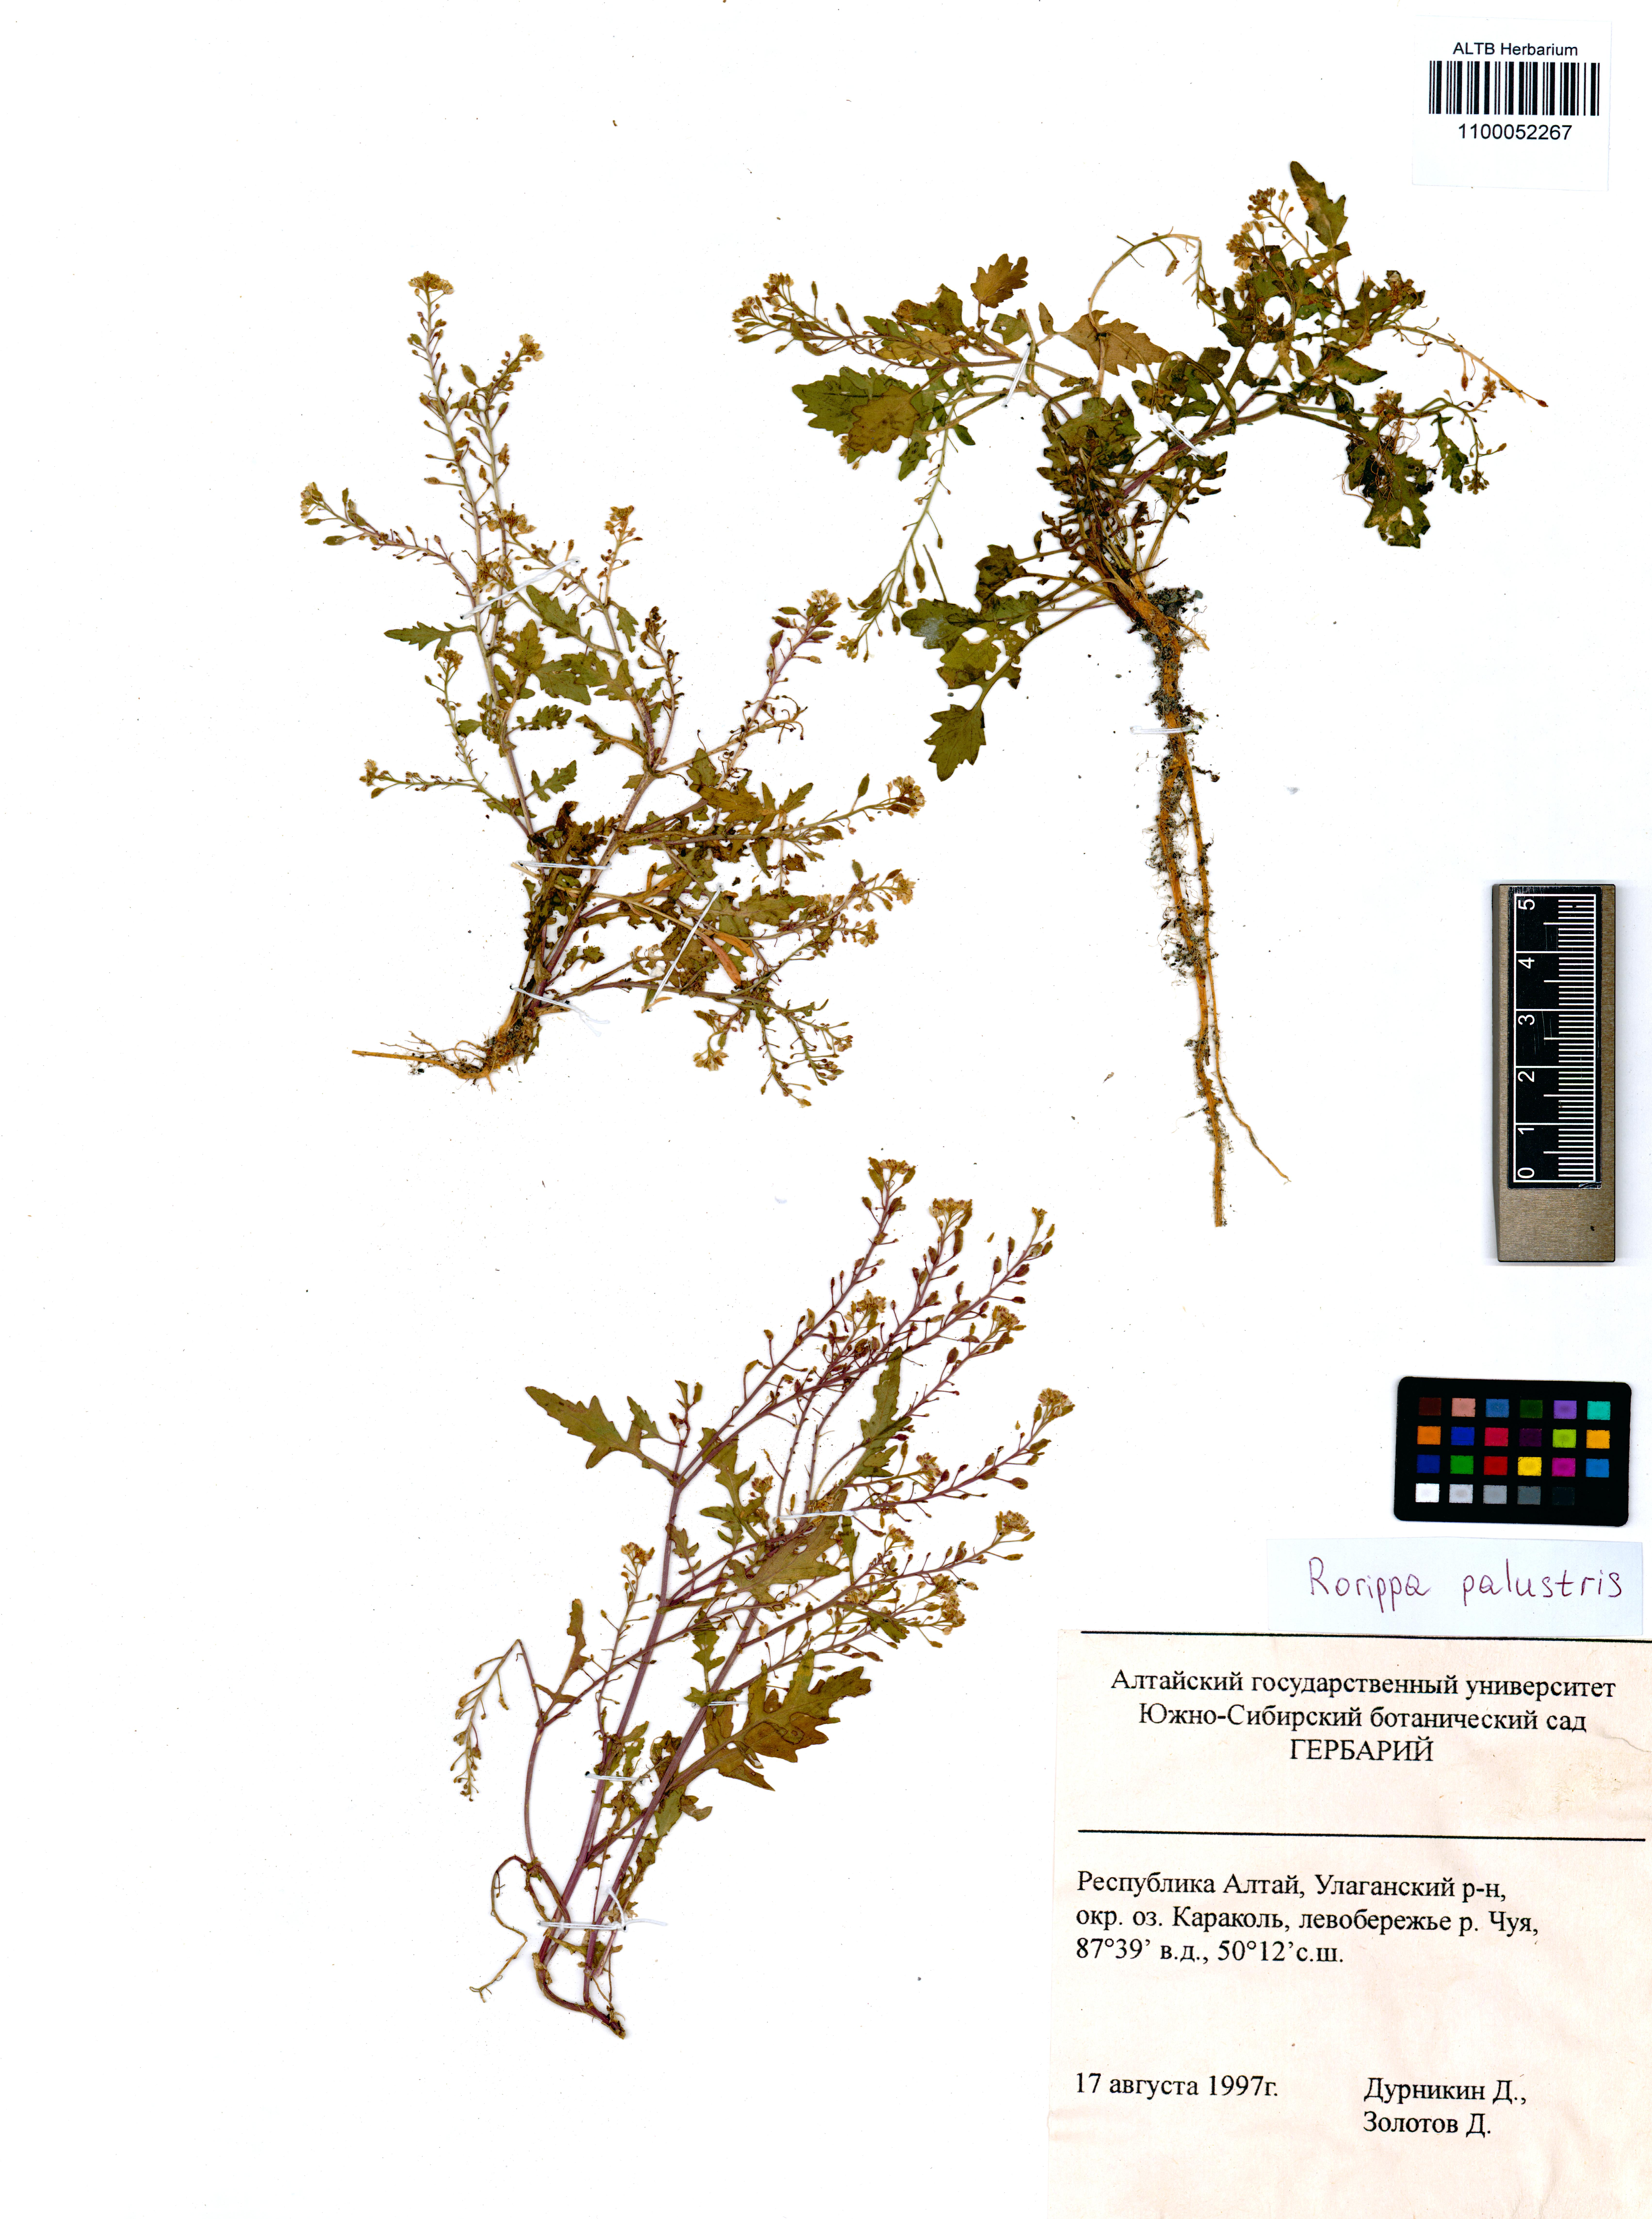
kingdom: Plantae
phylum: Tracheophyta
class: Magnoliopsida
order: Brassicales
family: Brassicaceae
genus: Rorippa
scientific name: Rorippa palustris
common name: Marsh yellow-cress
